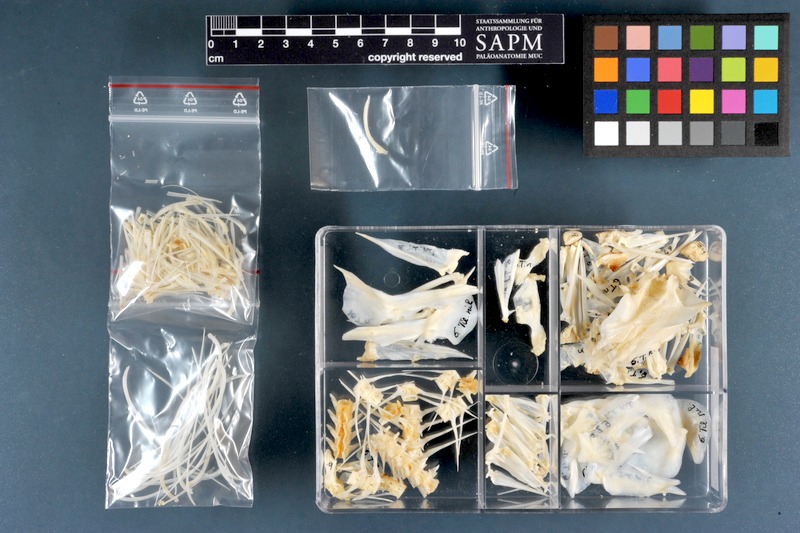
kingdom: Animalia
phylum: Chordata
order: Perciformes
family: Cichlidae
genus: Oreochromis
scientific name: Oreochromis niloticus
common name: Nile tilapia
